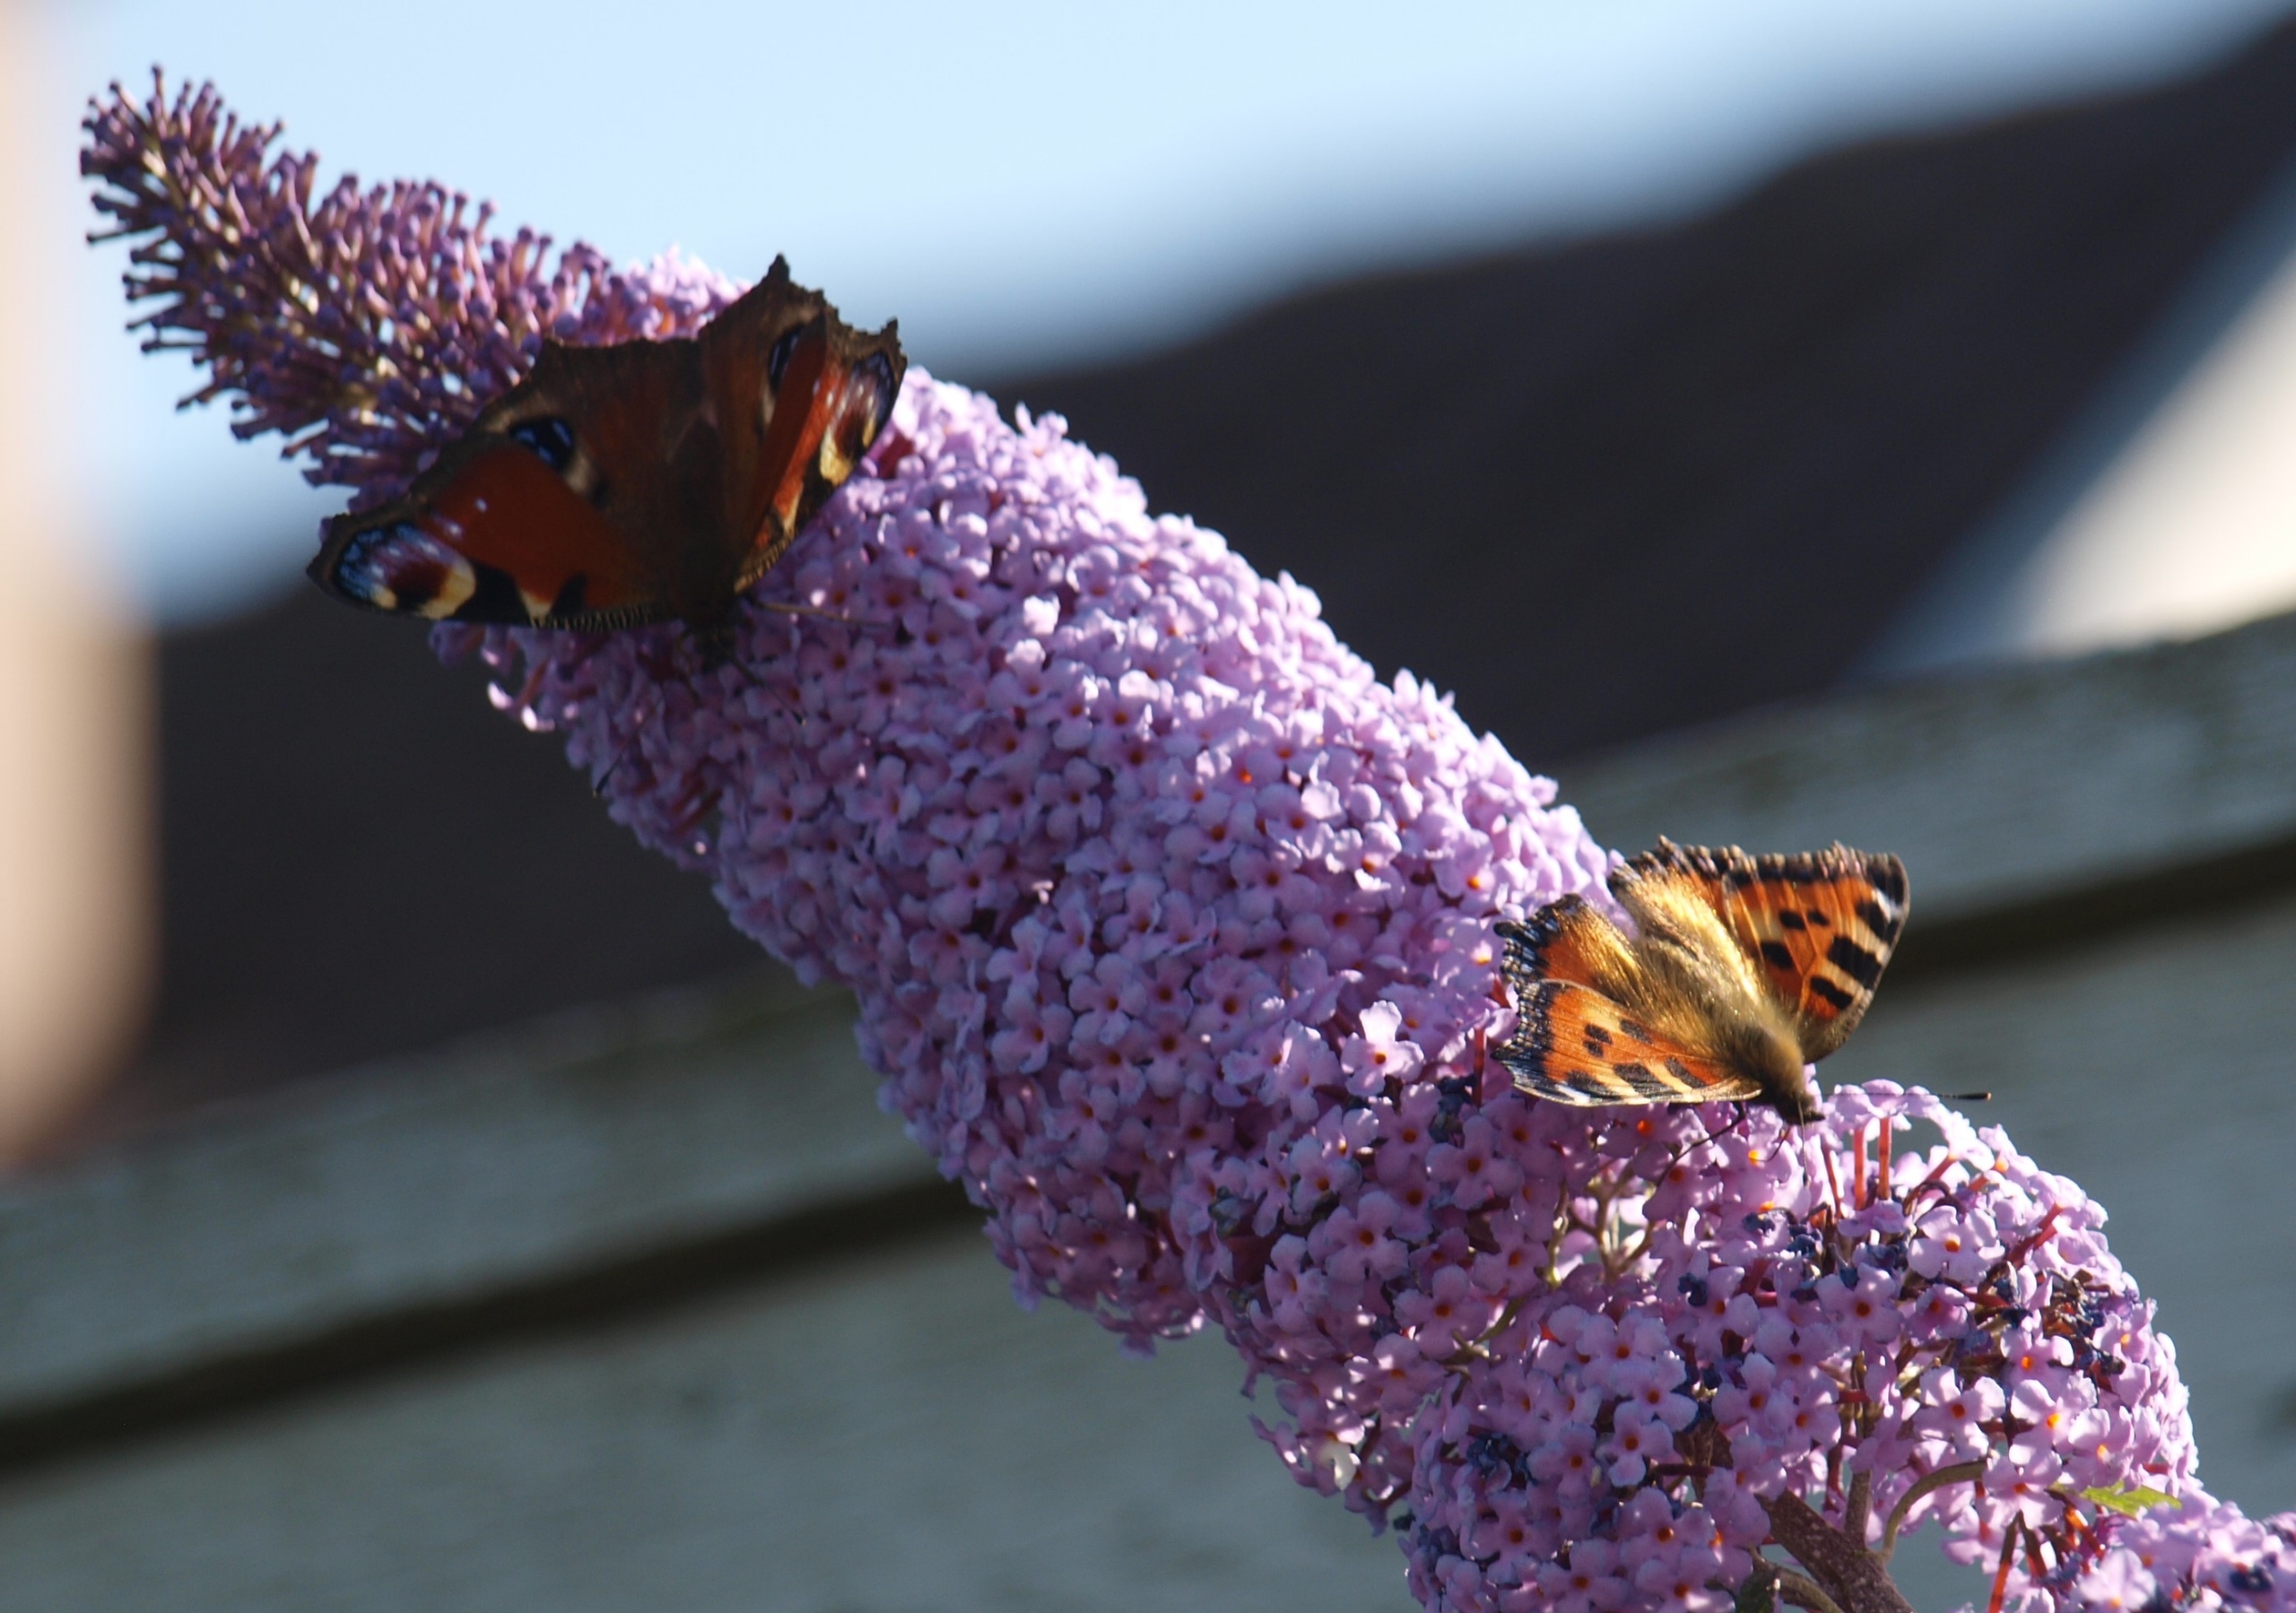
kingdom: Animalia
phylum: Arthropoda
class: Insecta
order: Lepidoptera
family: Nymphalidae
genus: Aglais
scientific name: Aglais io
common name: Dagpåfugleøje
